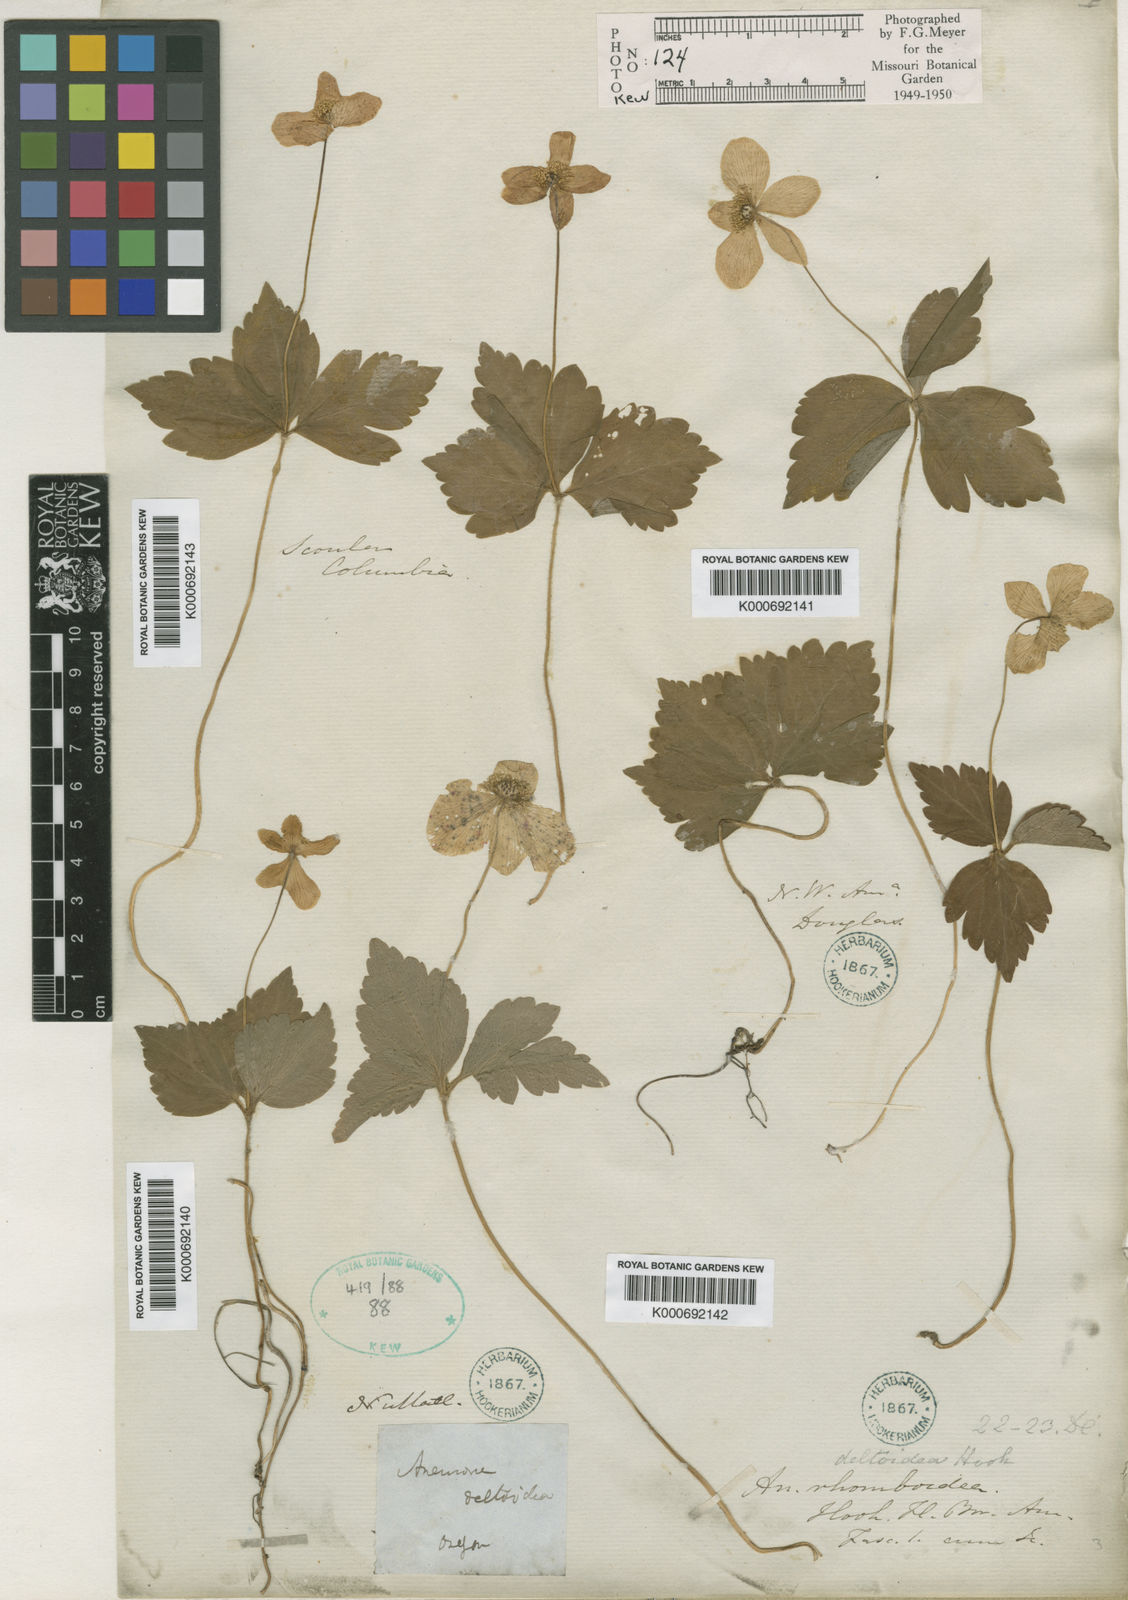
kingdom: Plantae
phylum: Tracheophyta
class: Magnoliopsida
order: Ranunculales
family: Ranunculaceae
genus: Anemonastrum
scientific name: Anemonastrum deltoideum
